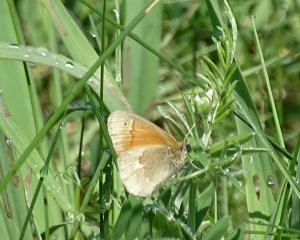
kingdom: Animalia
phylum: Arthropoda
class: Insecta
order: Lepidoptera
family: Nymphalidae
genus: Coenonympha
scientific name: Coenonympha tullia
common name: Large Heath
